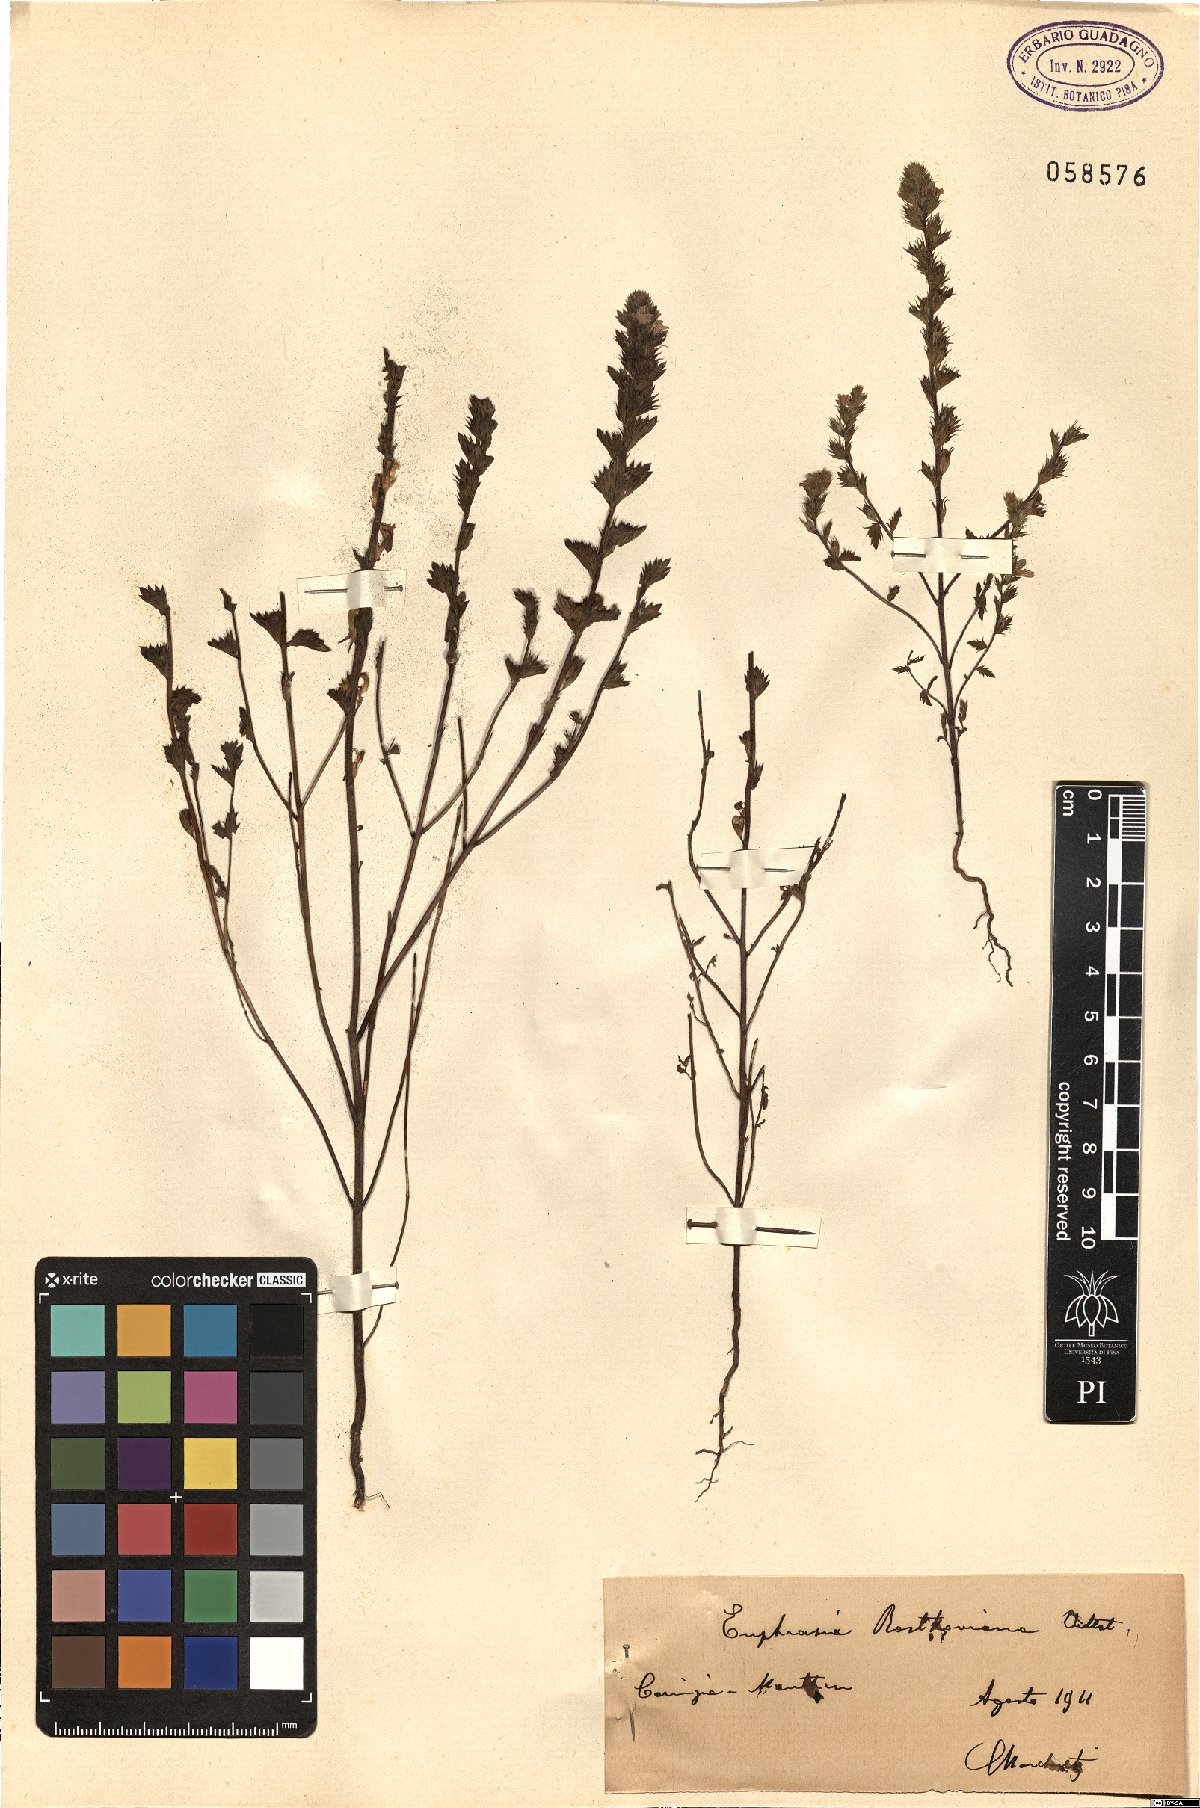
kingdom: Plantae
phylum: Tracheophyta
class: Magnoliopsida
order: Lamiales
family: Orobanchaceae
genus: Euphrasia
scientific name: Euphrasia officinalis
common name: Eyebright
